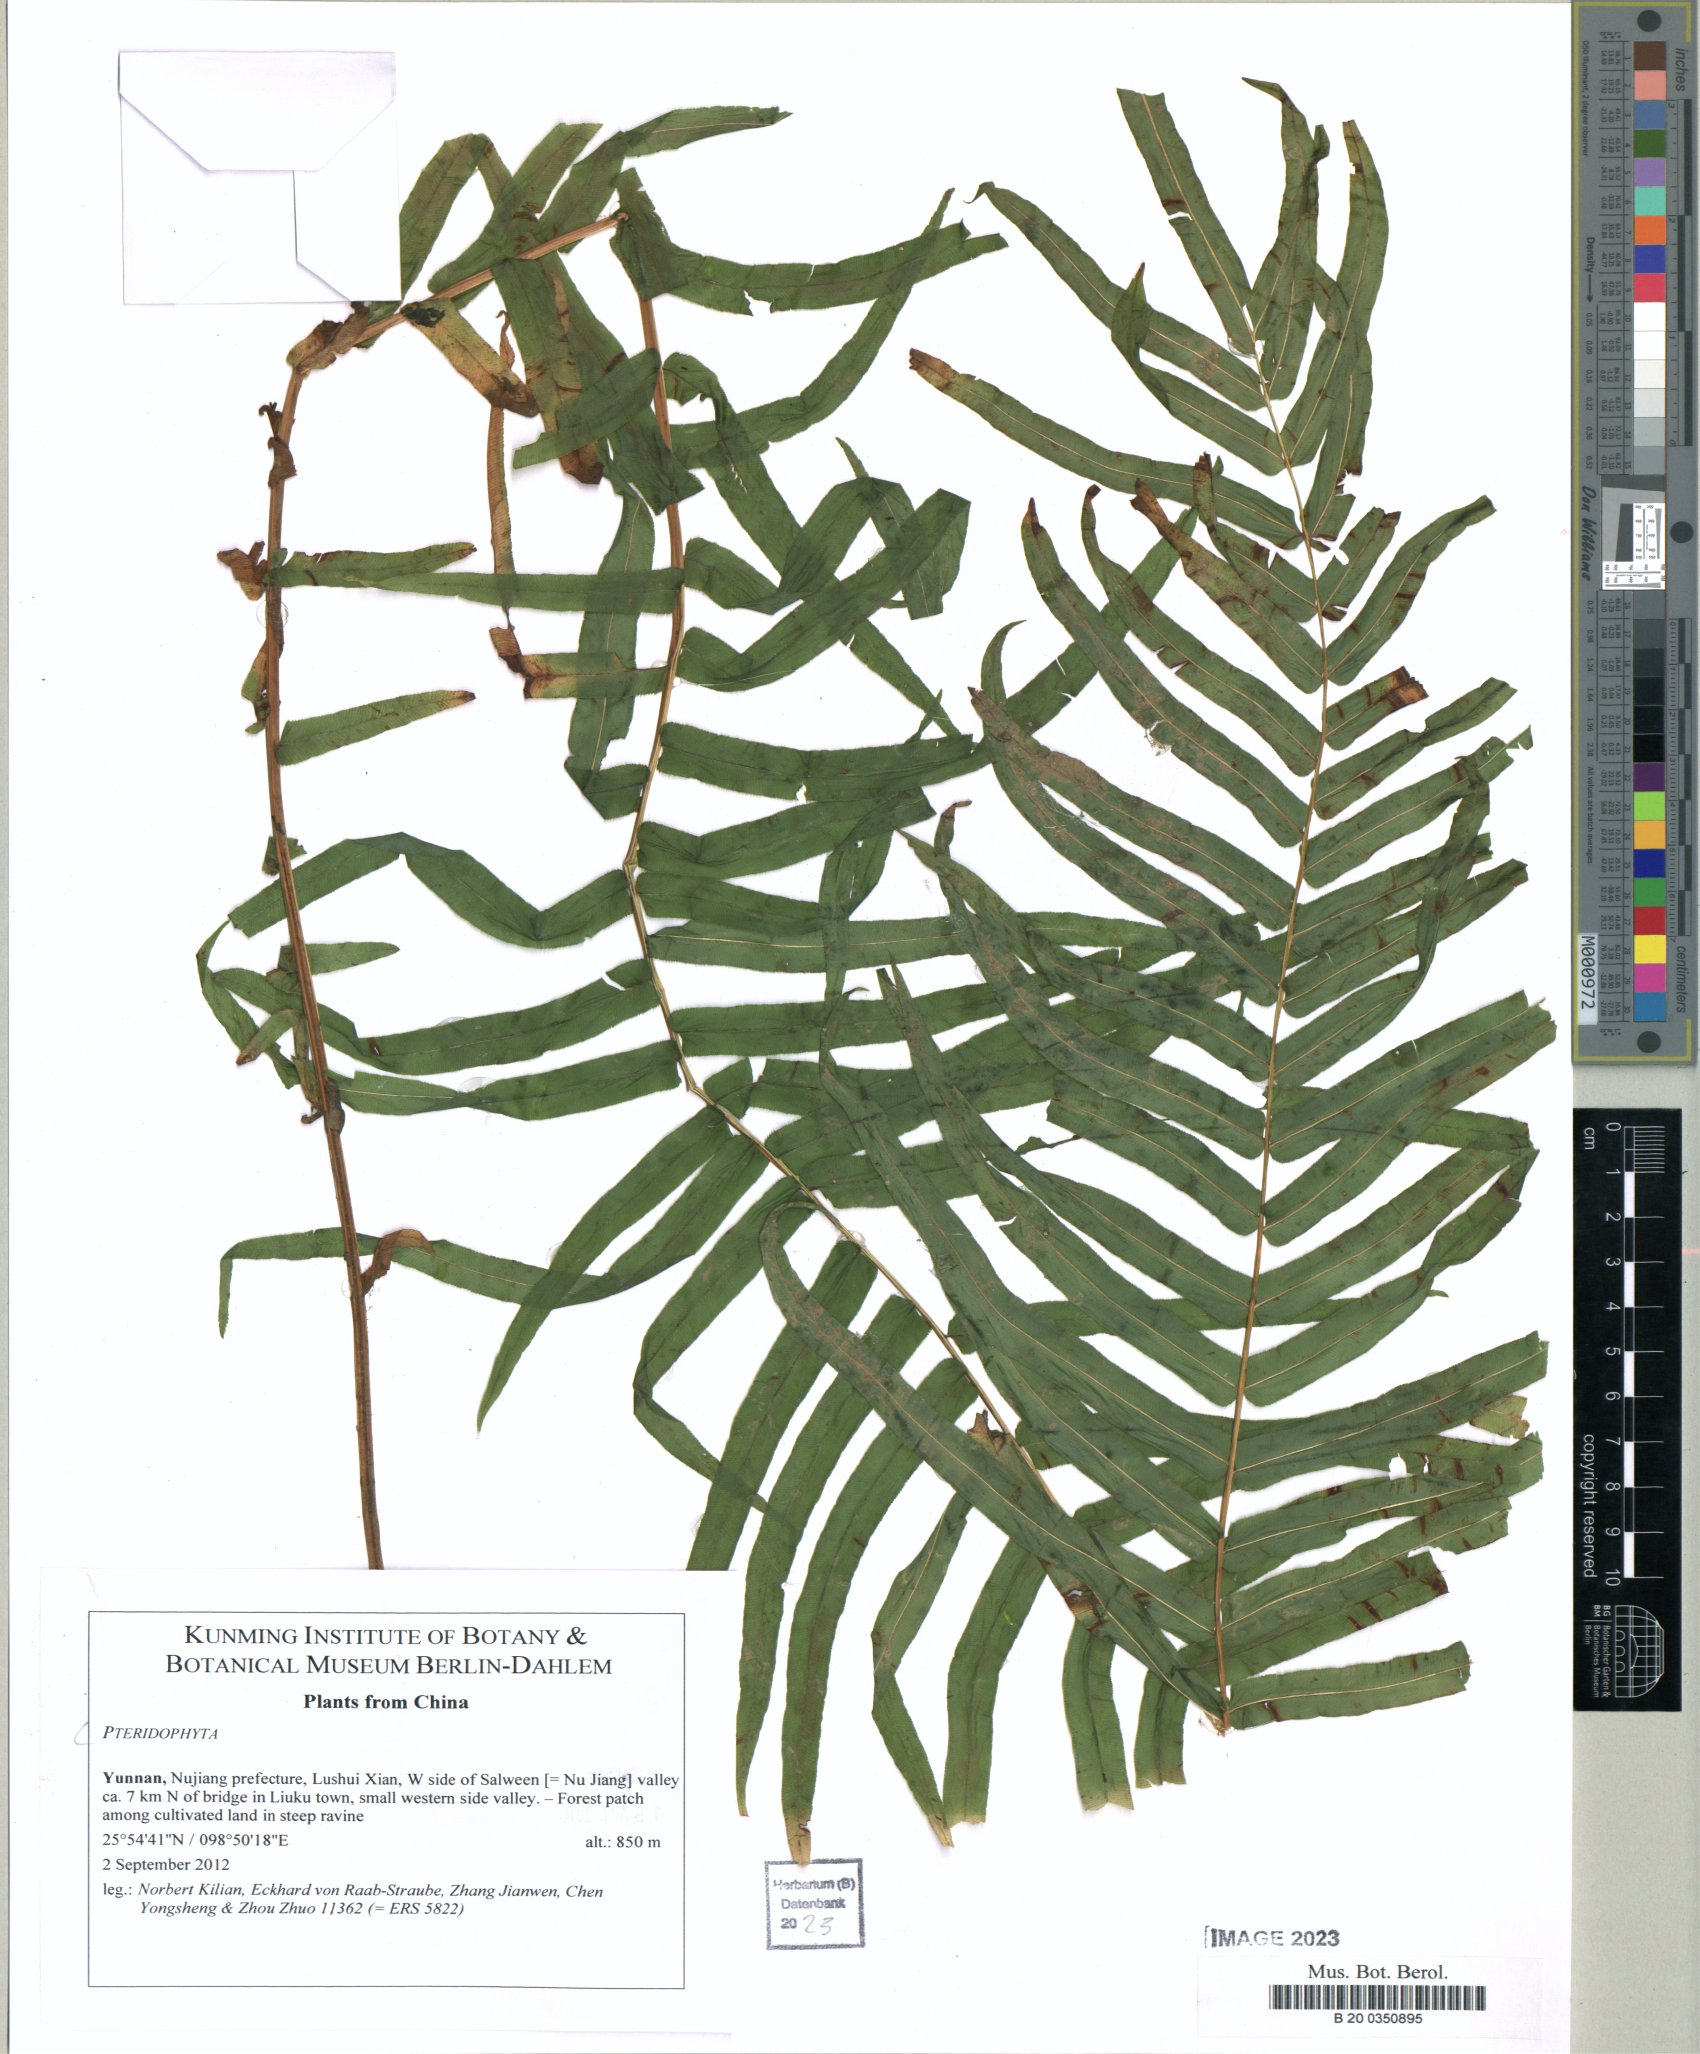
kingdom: Plantae
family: Pteridophyta
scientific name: Pteridophyta
